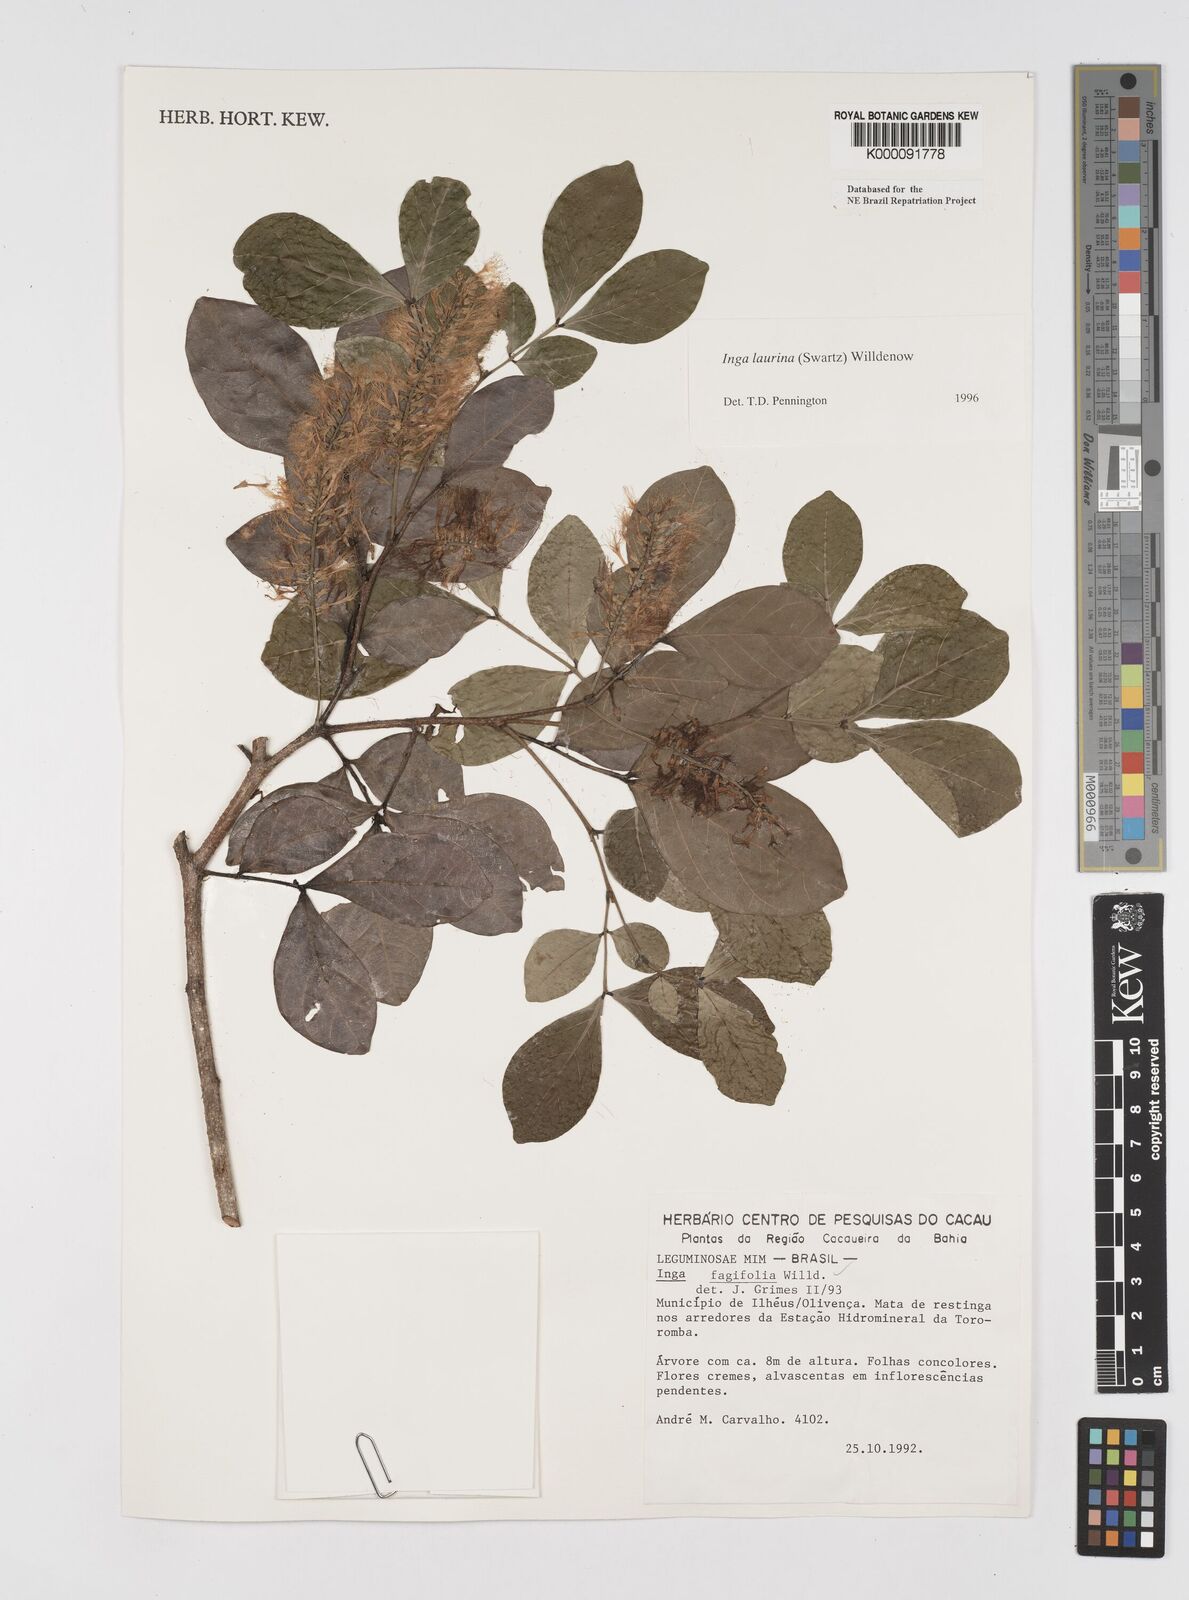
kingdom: Plantae
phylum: Tracheophyta
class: Magnoliopsida
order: Fabales
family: Fabaceae
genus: Inga
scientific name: Inga laurina
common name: Red wood
